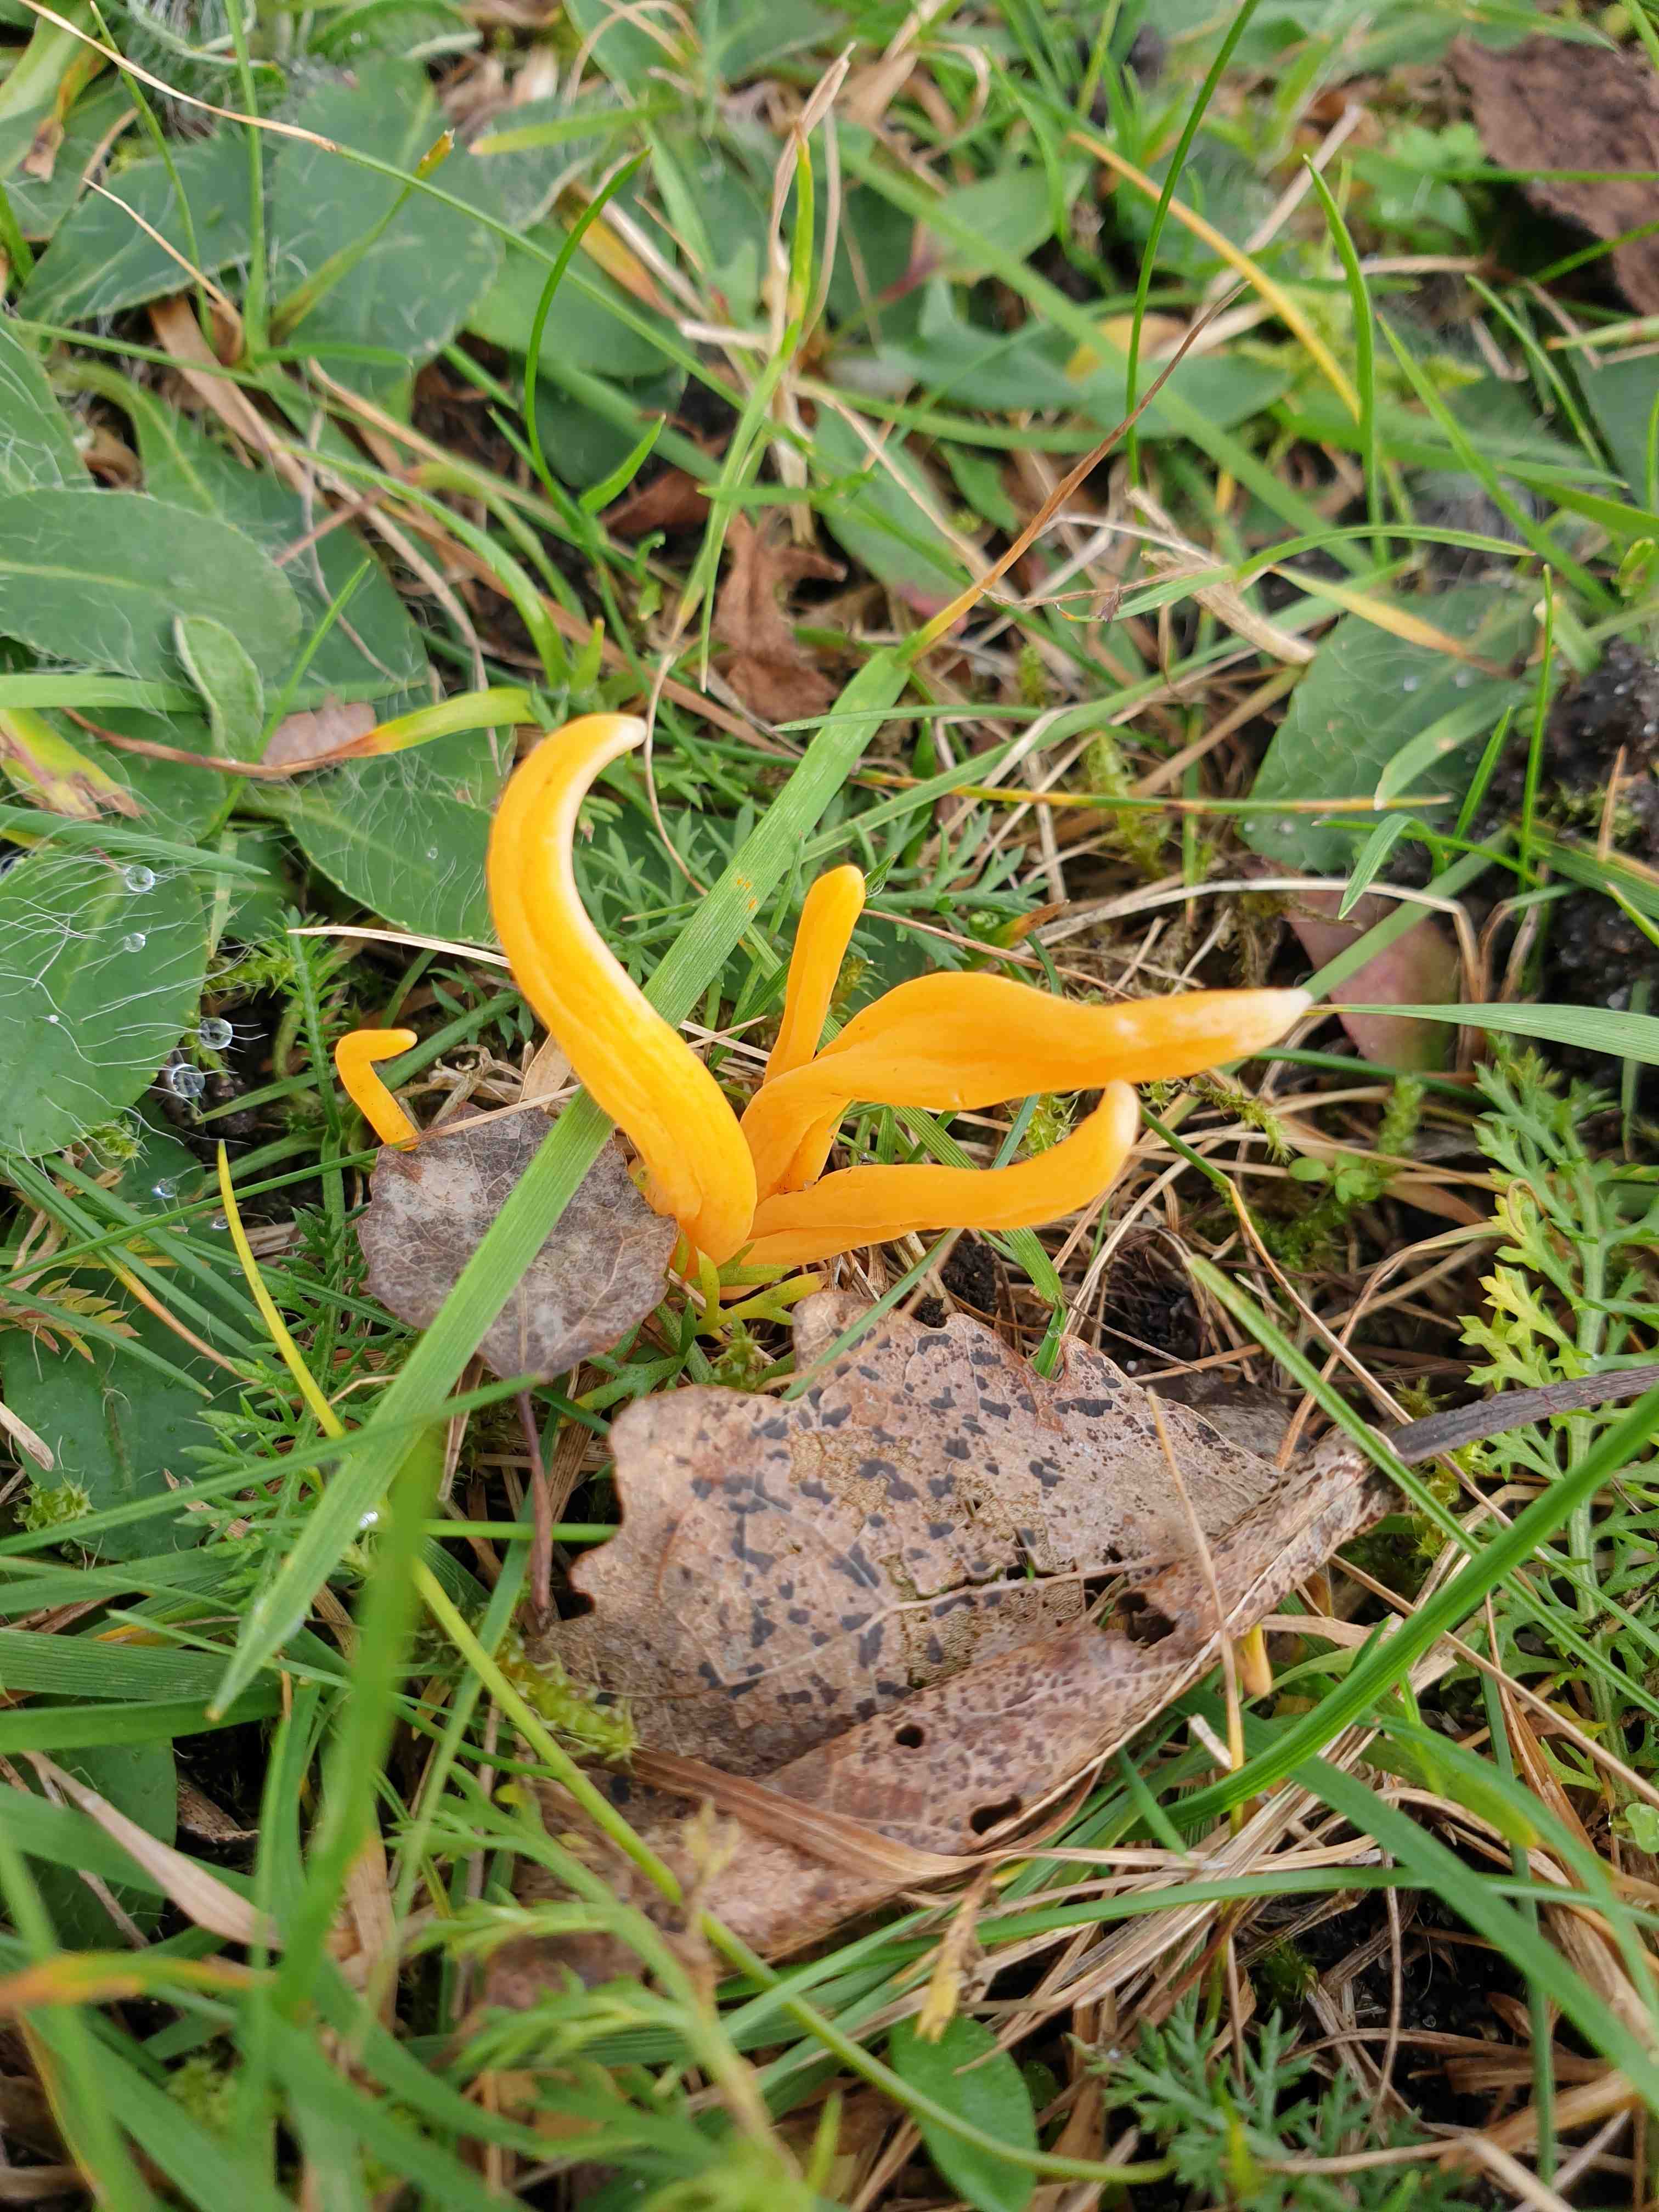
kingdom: Fungi
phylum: Basidiomycota
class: Agaricomycetes
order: Agaricales
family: Clavariaceae
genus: Clavulinopsis
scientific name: Clavulinopsis
